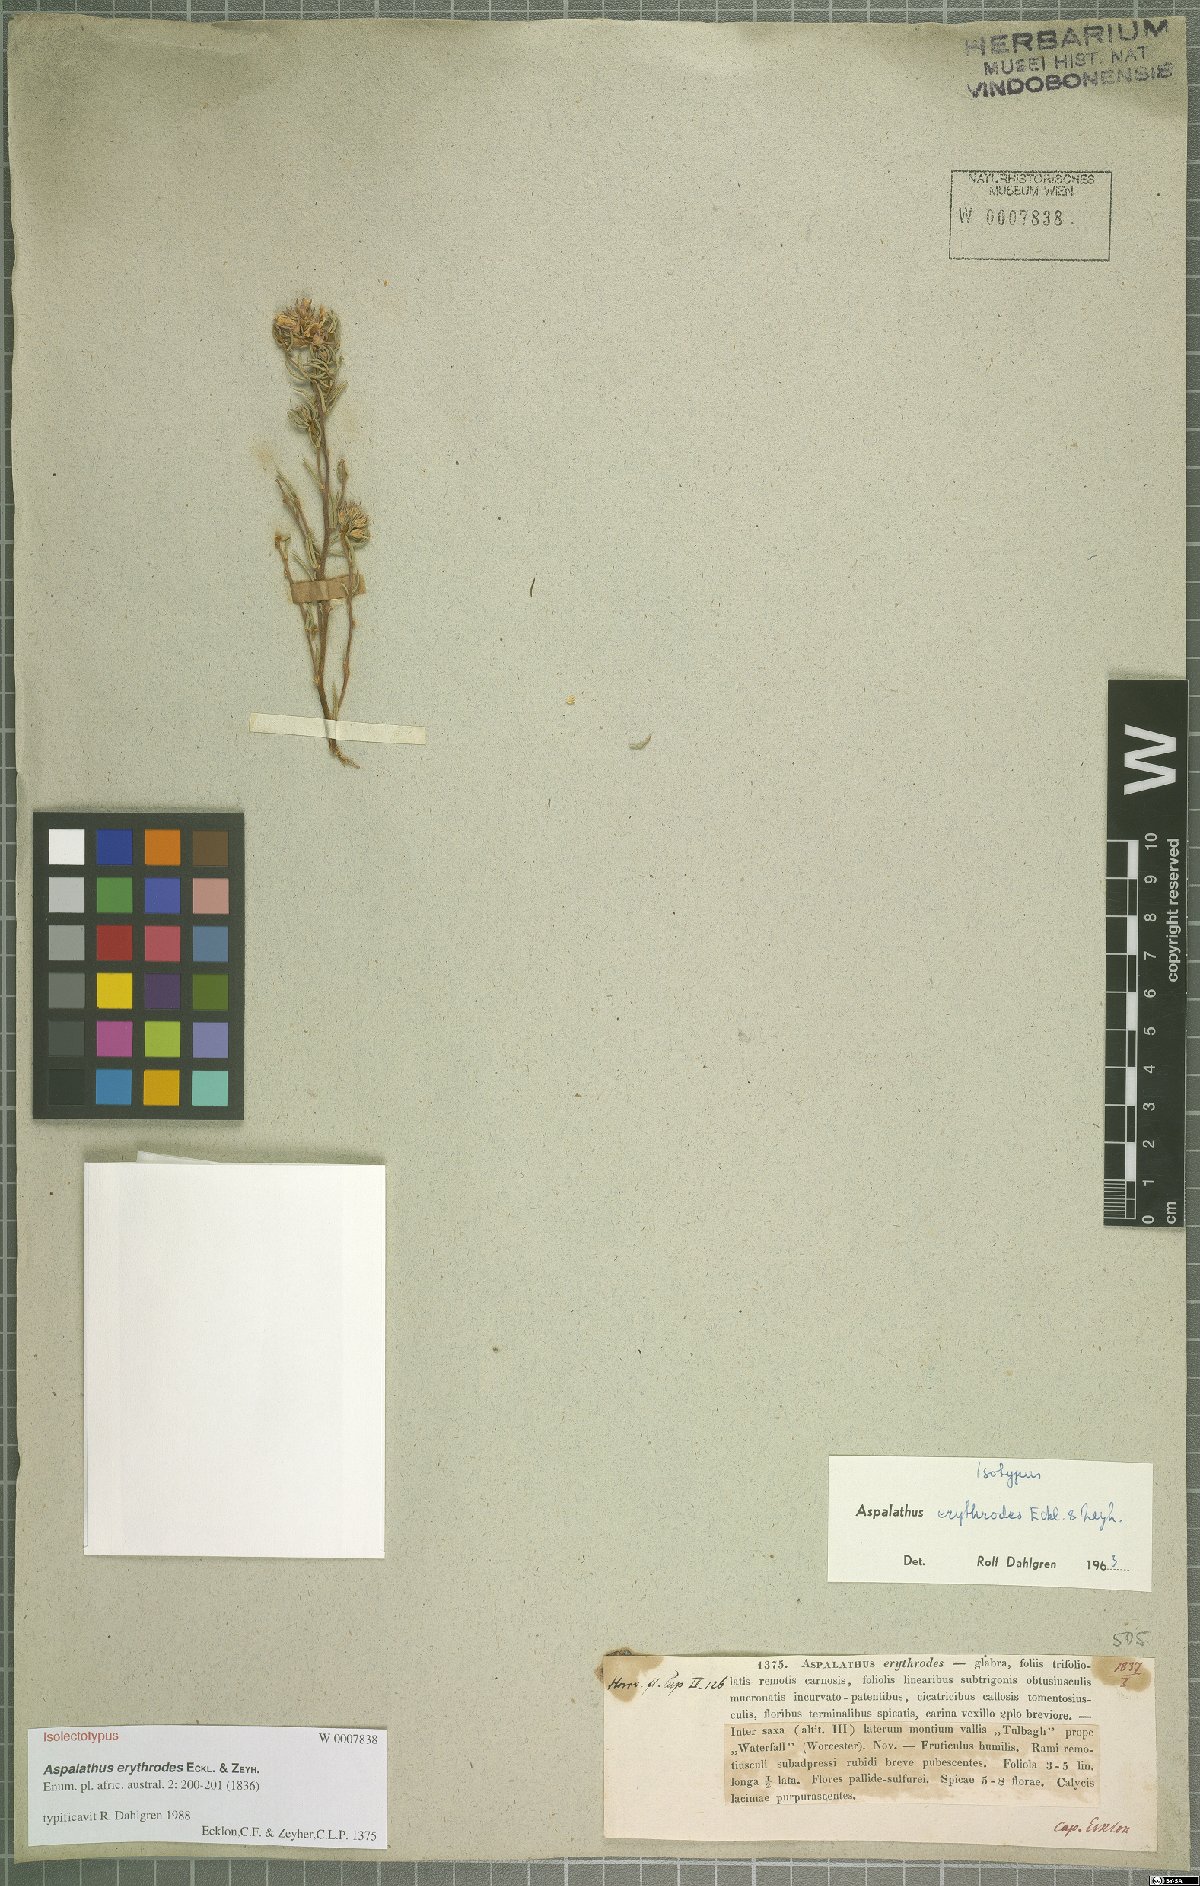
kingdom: Plantae
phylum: Tracheophyta
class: Magnoliopsida
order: Fabales
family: Fabaceae
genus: Aspalathus
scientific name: Aspalathus erythrodes
